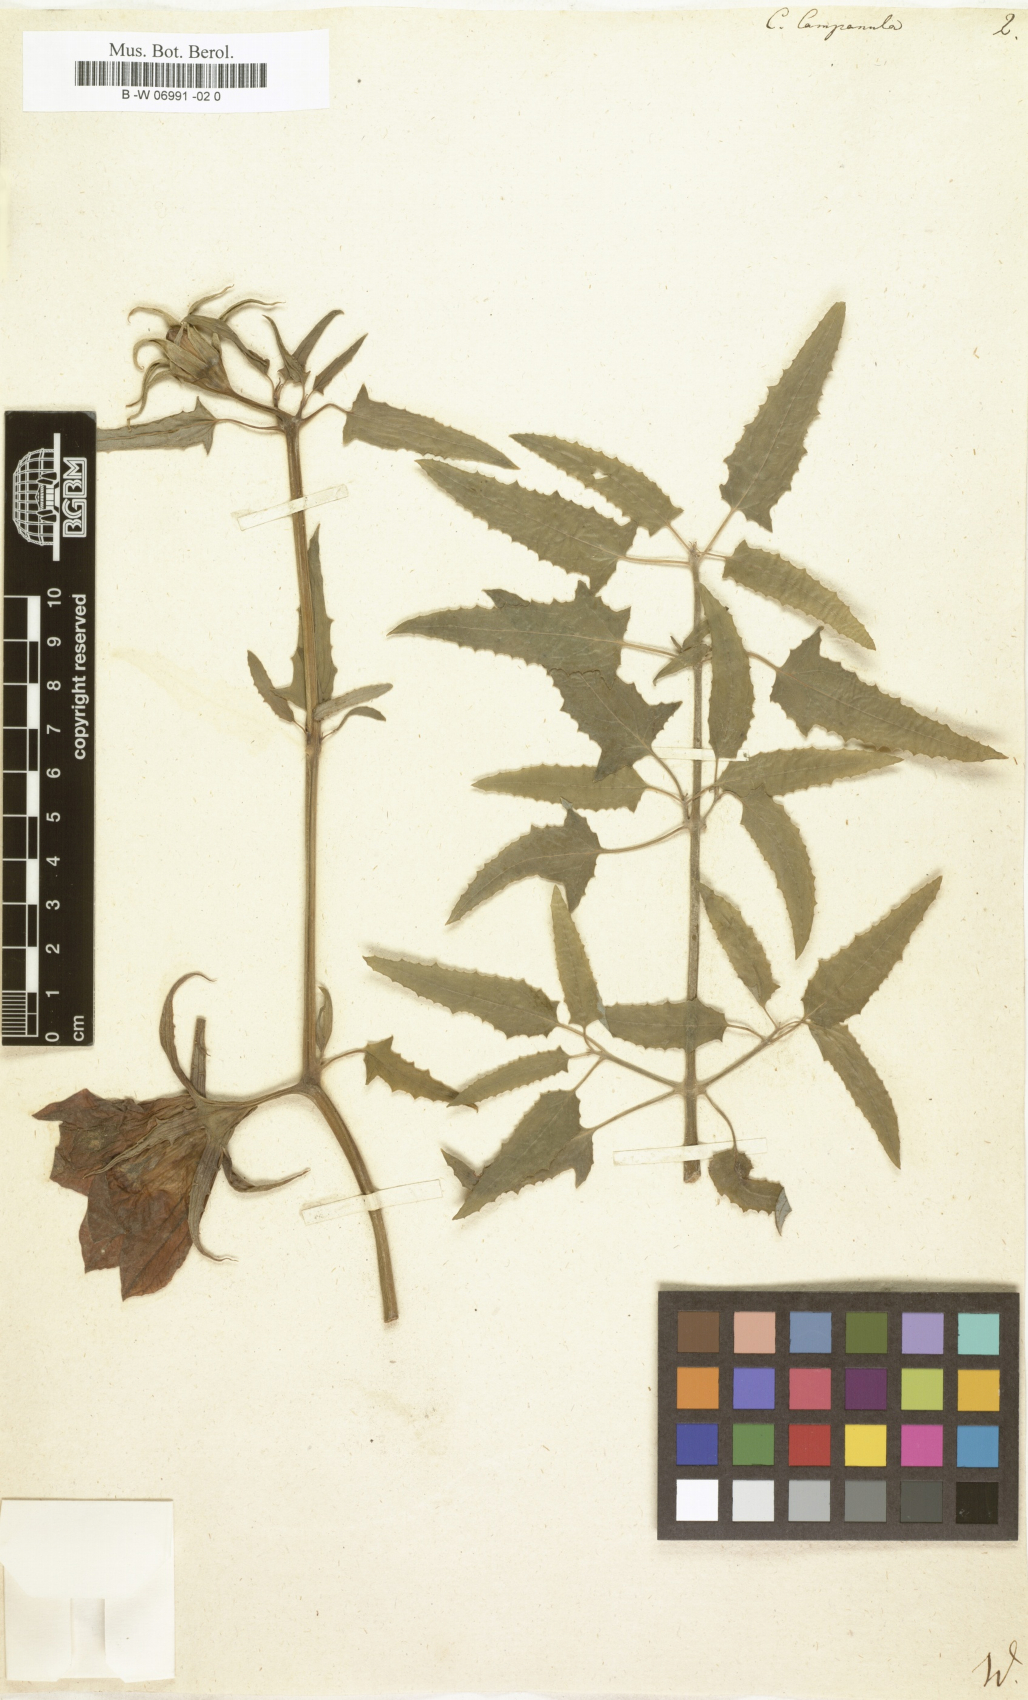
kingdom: Plantae
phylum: Tracheophyta
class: Magnoliopsida
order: Asterales
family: Campanulaceae
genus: Canarina
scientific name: Canarina campanula
